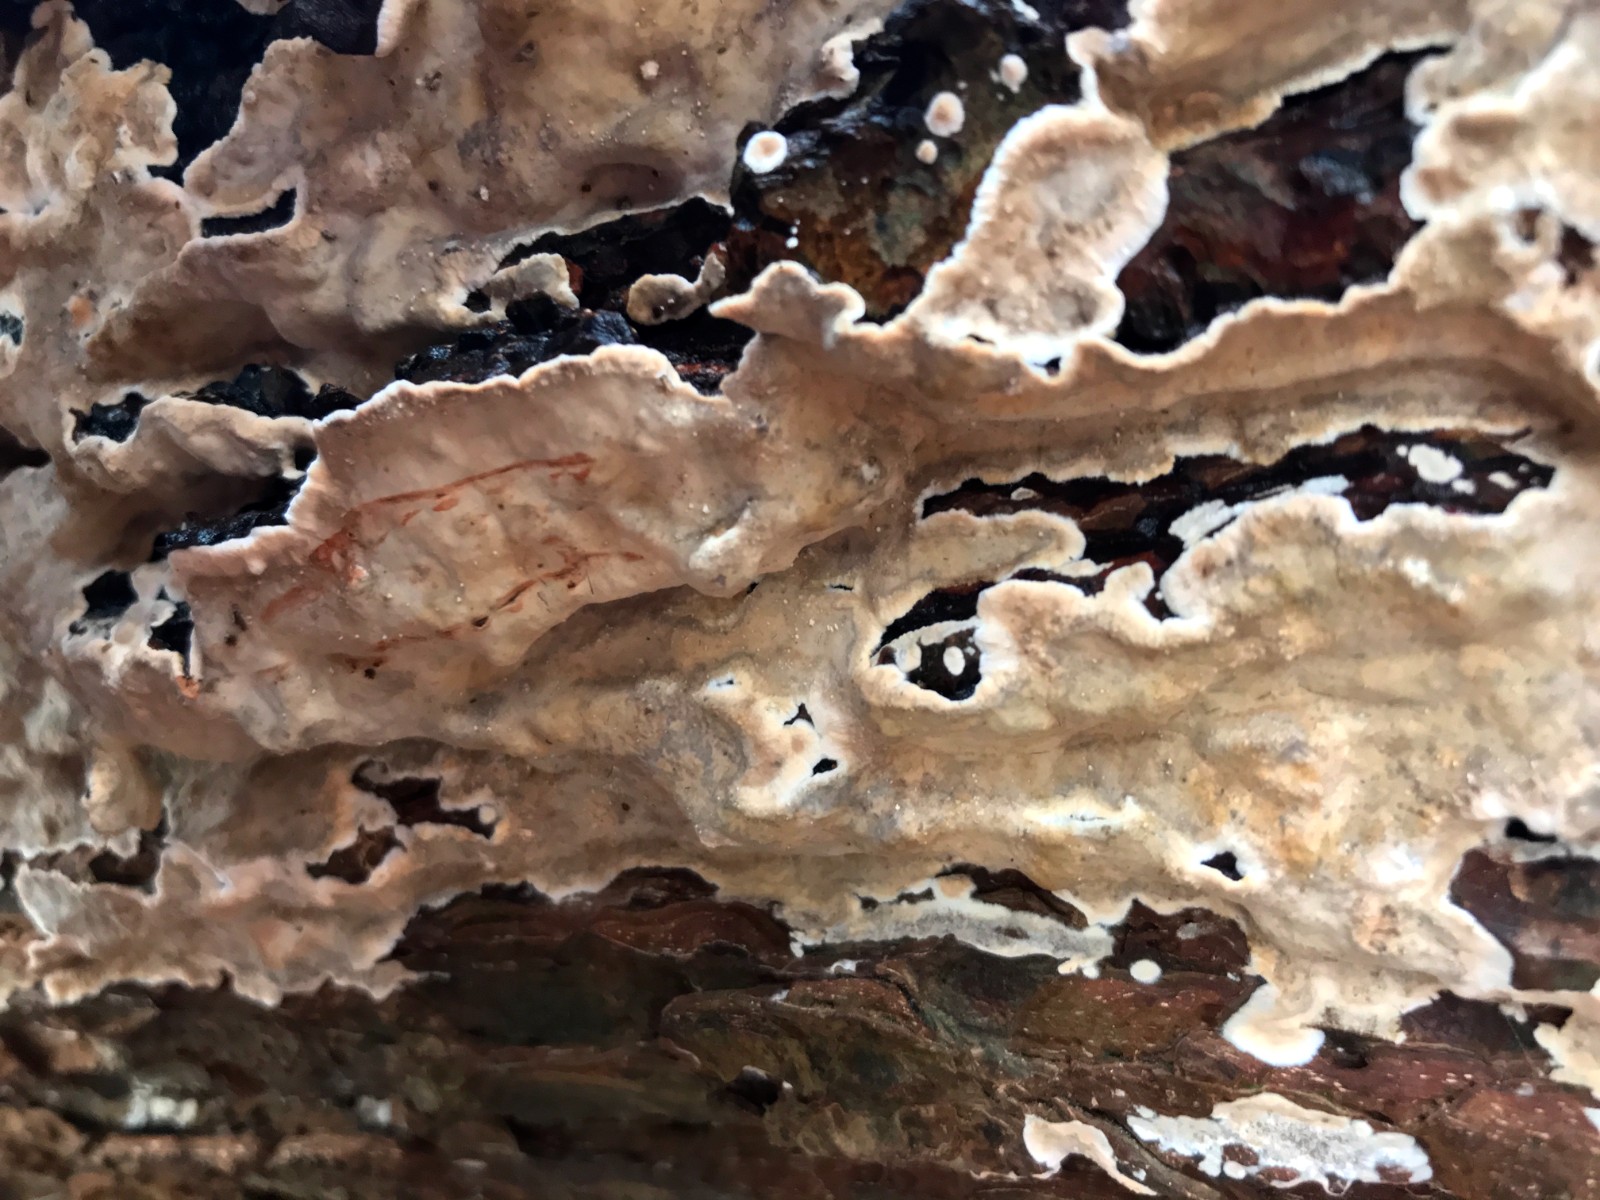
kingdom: Fungi
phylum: Basidiomycota
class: Agaricomycetes
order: Russulales
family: Stereaceae
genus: Stereum
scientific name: Stereum rugosum
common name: rynket lædersvamp
